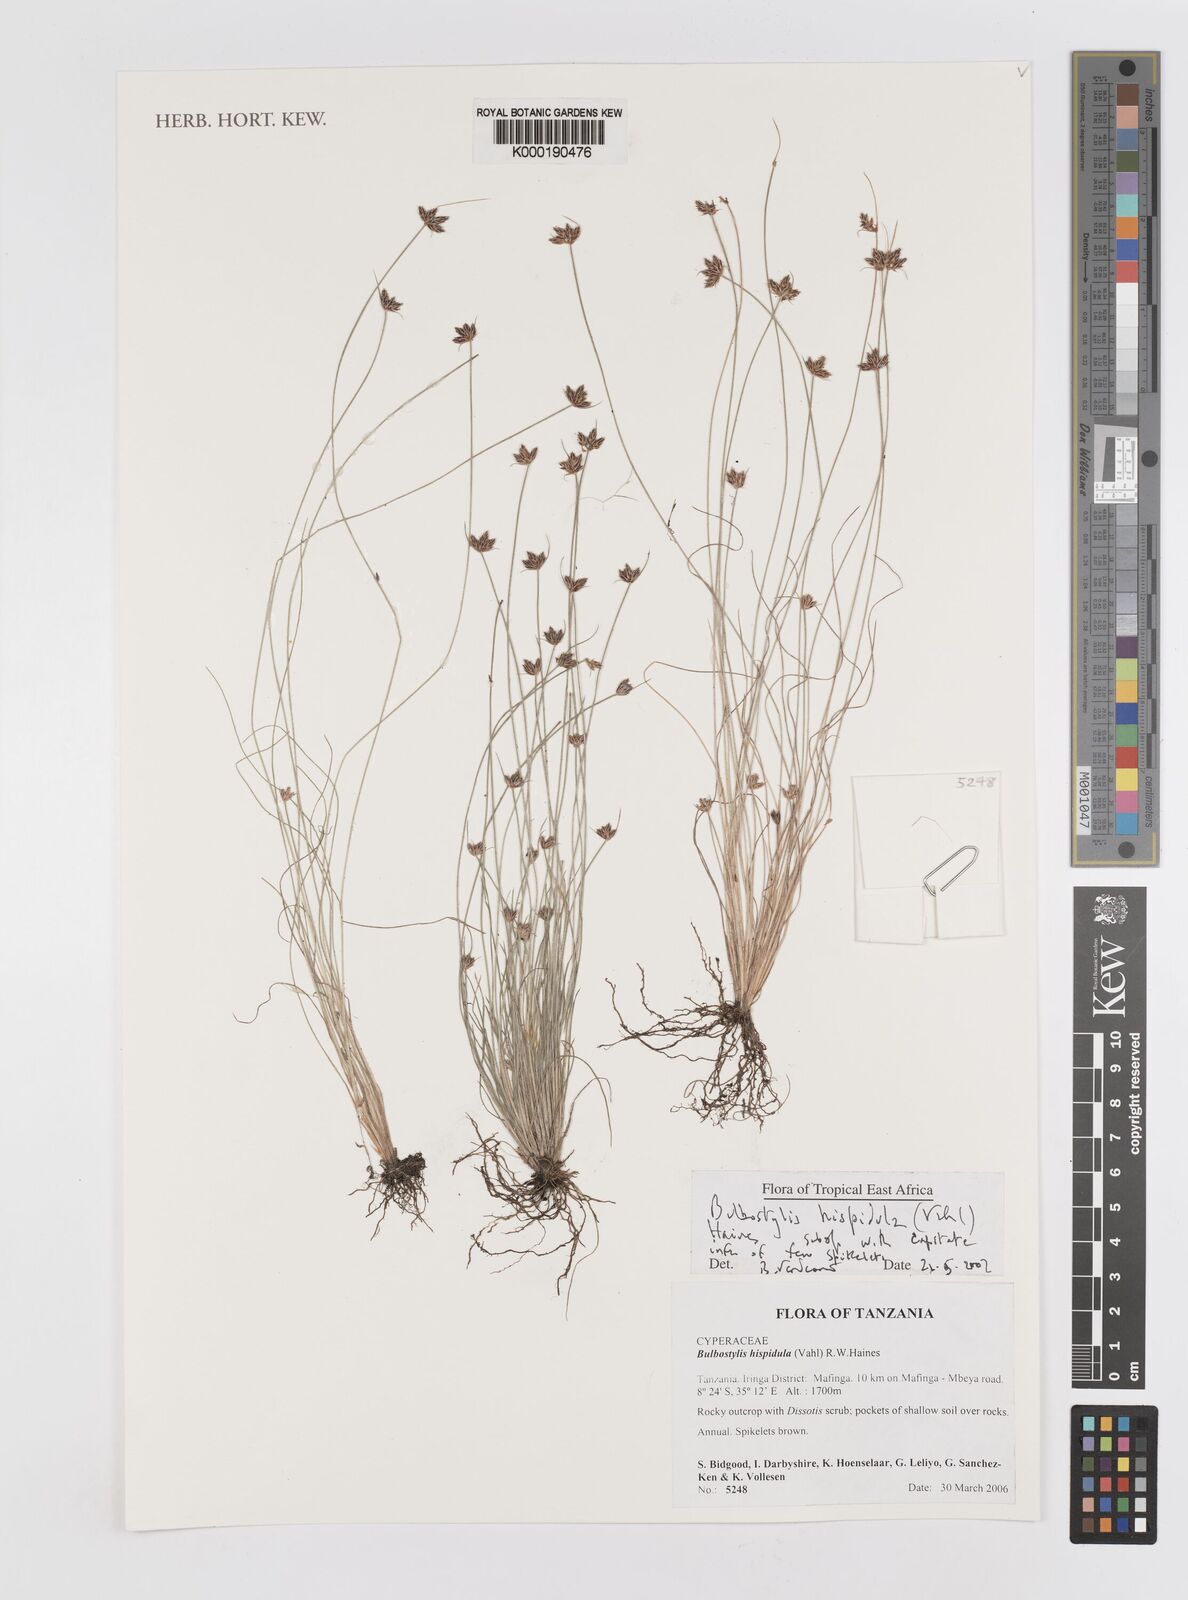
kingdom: Plantae
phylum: Tracheophyta
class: Liliopsida
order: Poales
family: Cyperaceae
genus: Bulbostylis
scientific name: Bulbostylis hispidula
